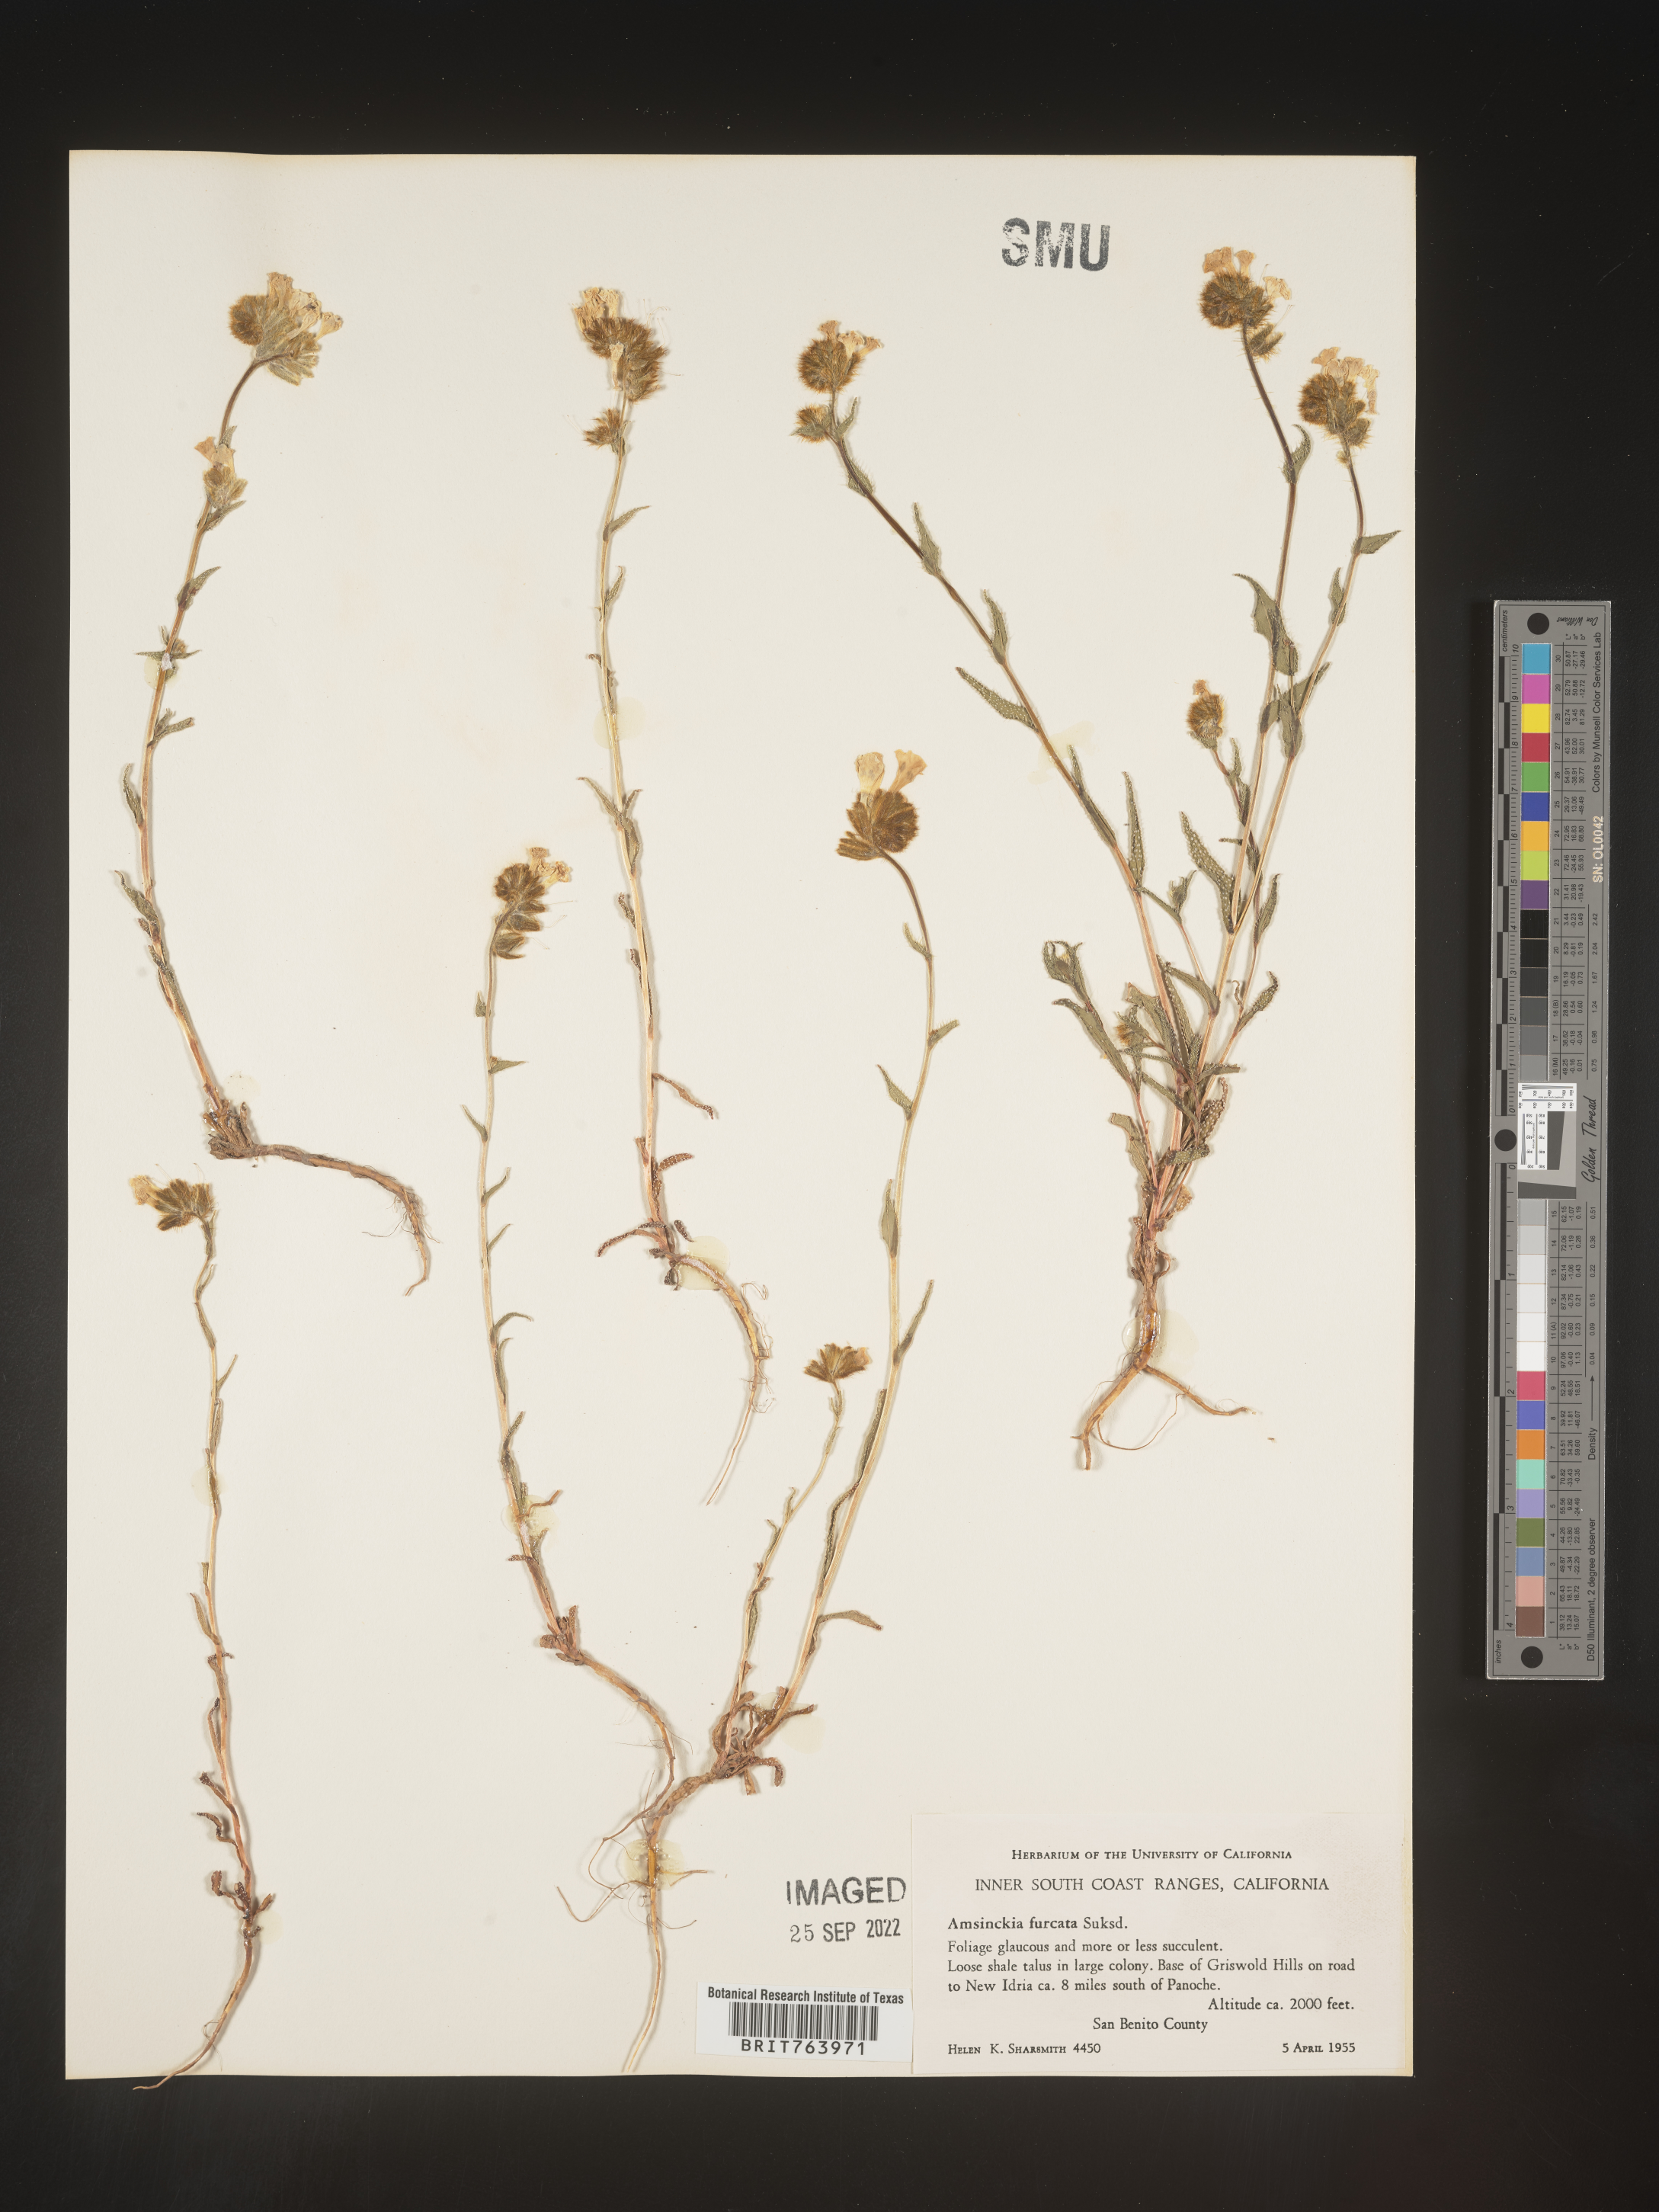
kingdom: Plantae
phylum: Tracheophyta
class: Magnoliopsida
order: Boraginales
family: Boraginaceae
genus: Amsinckia
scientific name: Amsinckia
